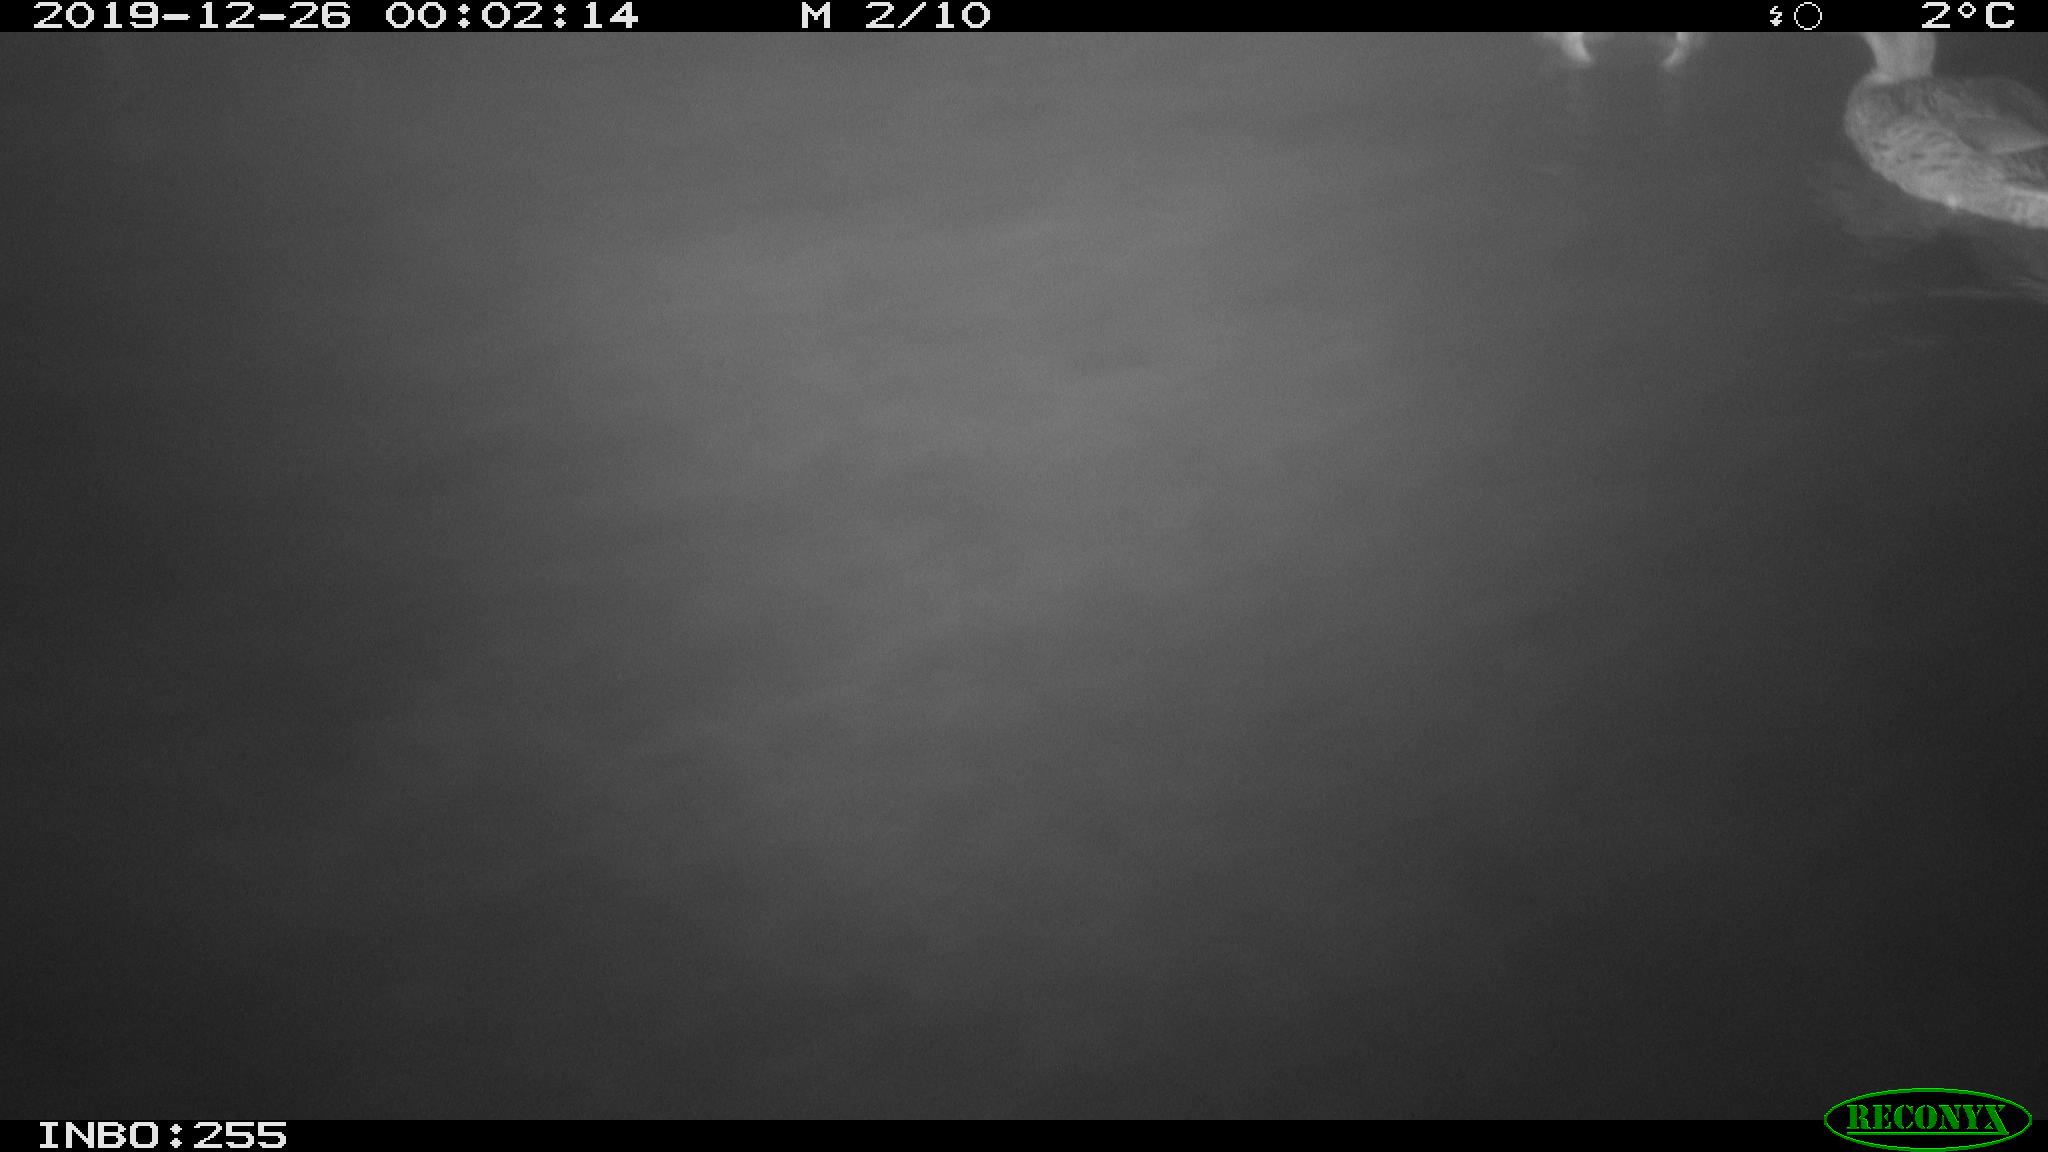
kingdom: Animalia
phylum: Chordata
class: Aves
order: Anseriformes
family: Anatidae
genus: Anas
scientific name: Anas platyrhynchos
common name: Mallard
